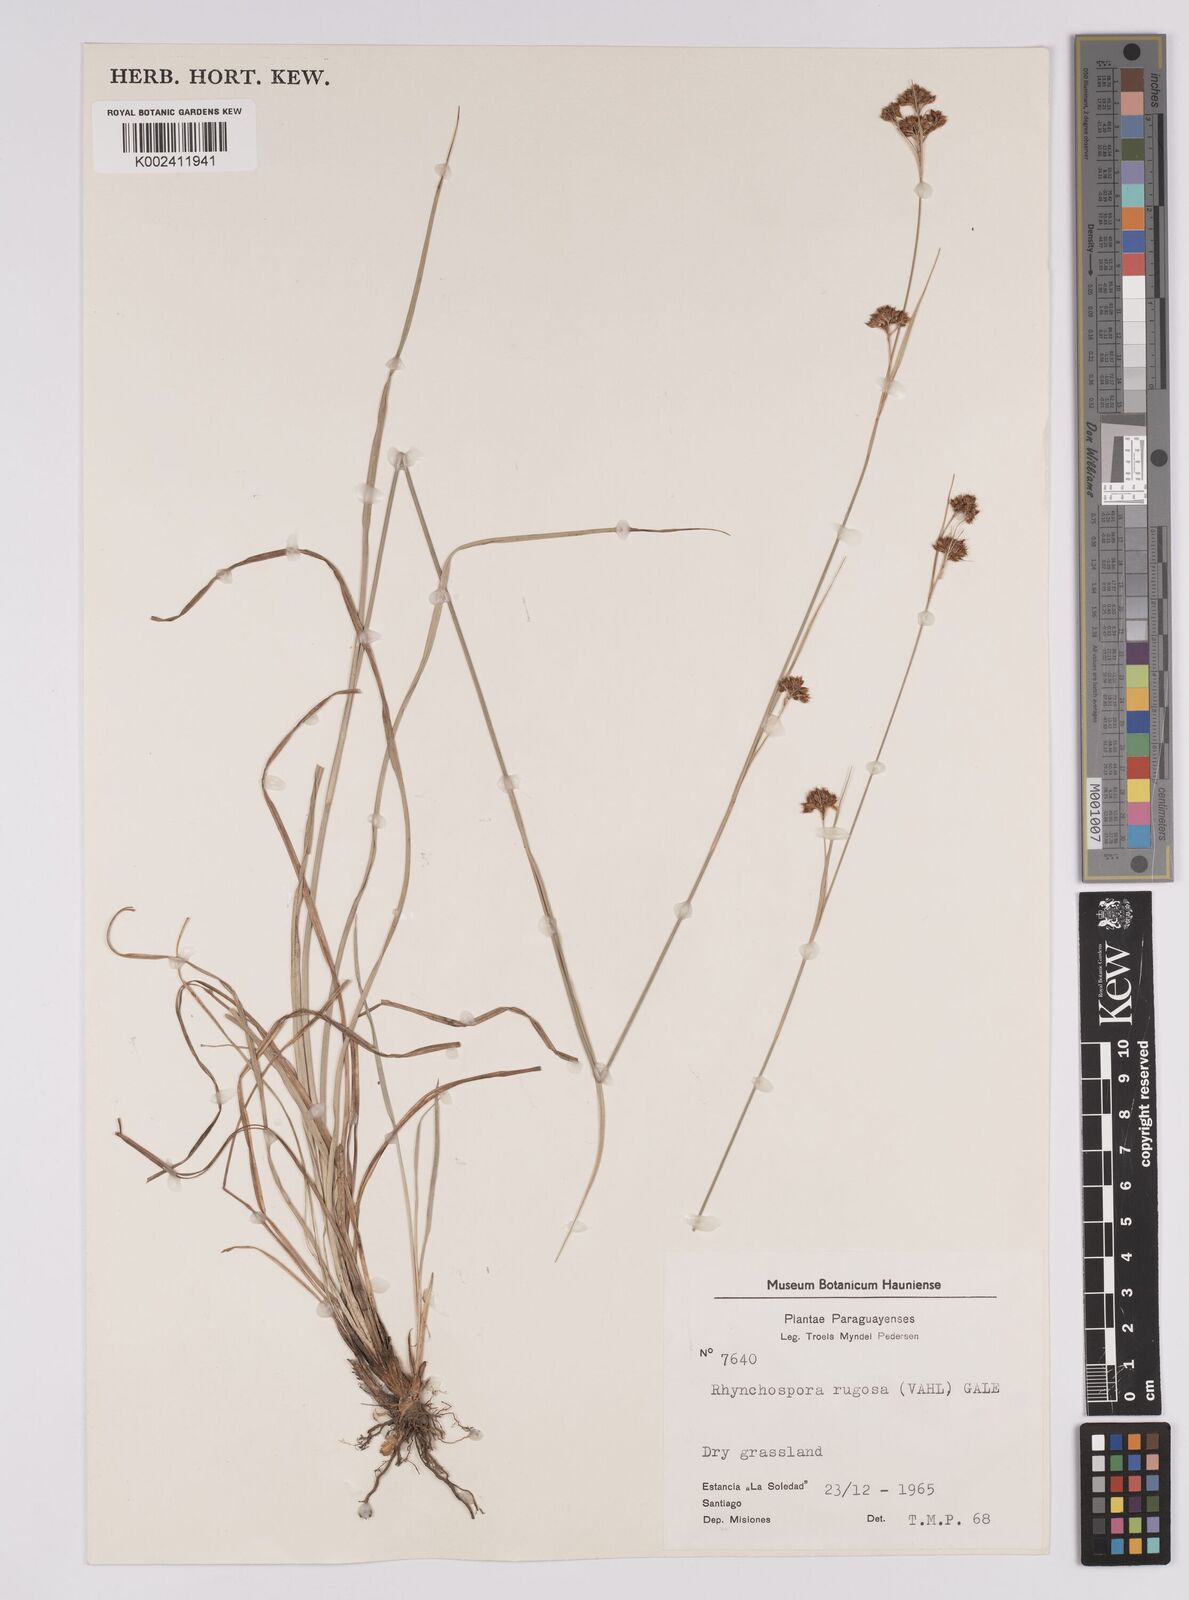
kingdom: Plantae
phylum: Tracheophyta
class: Liliopsida
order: Poales
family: Cyperaceae
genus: Rhynchospora
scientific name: Rhynchospora barrosiana
